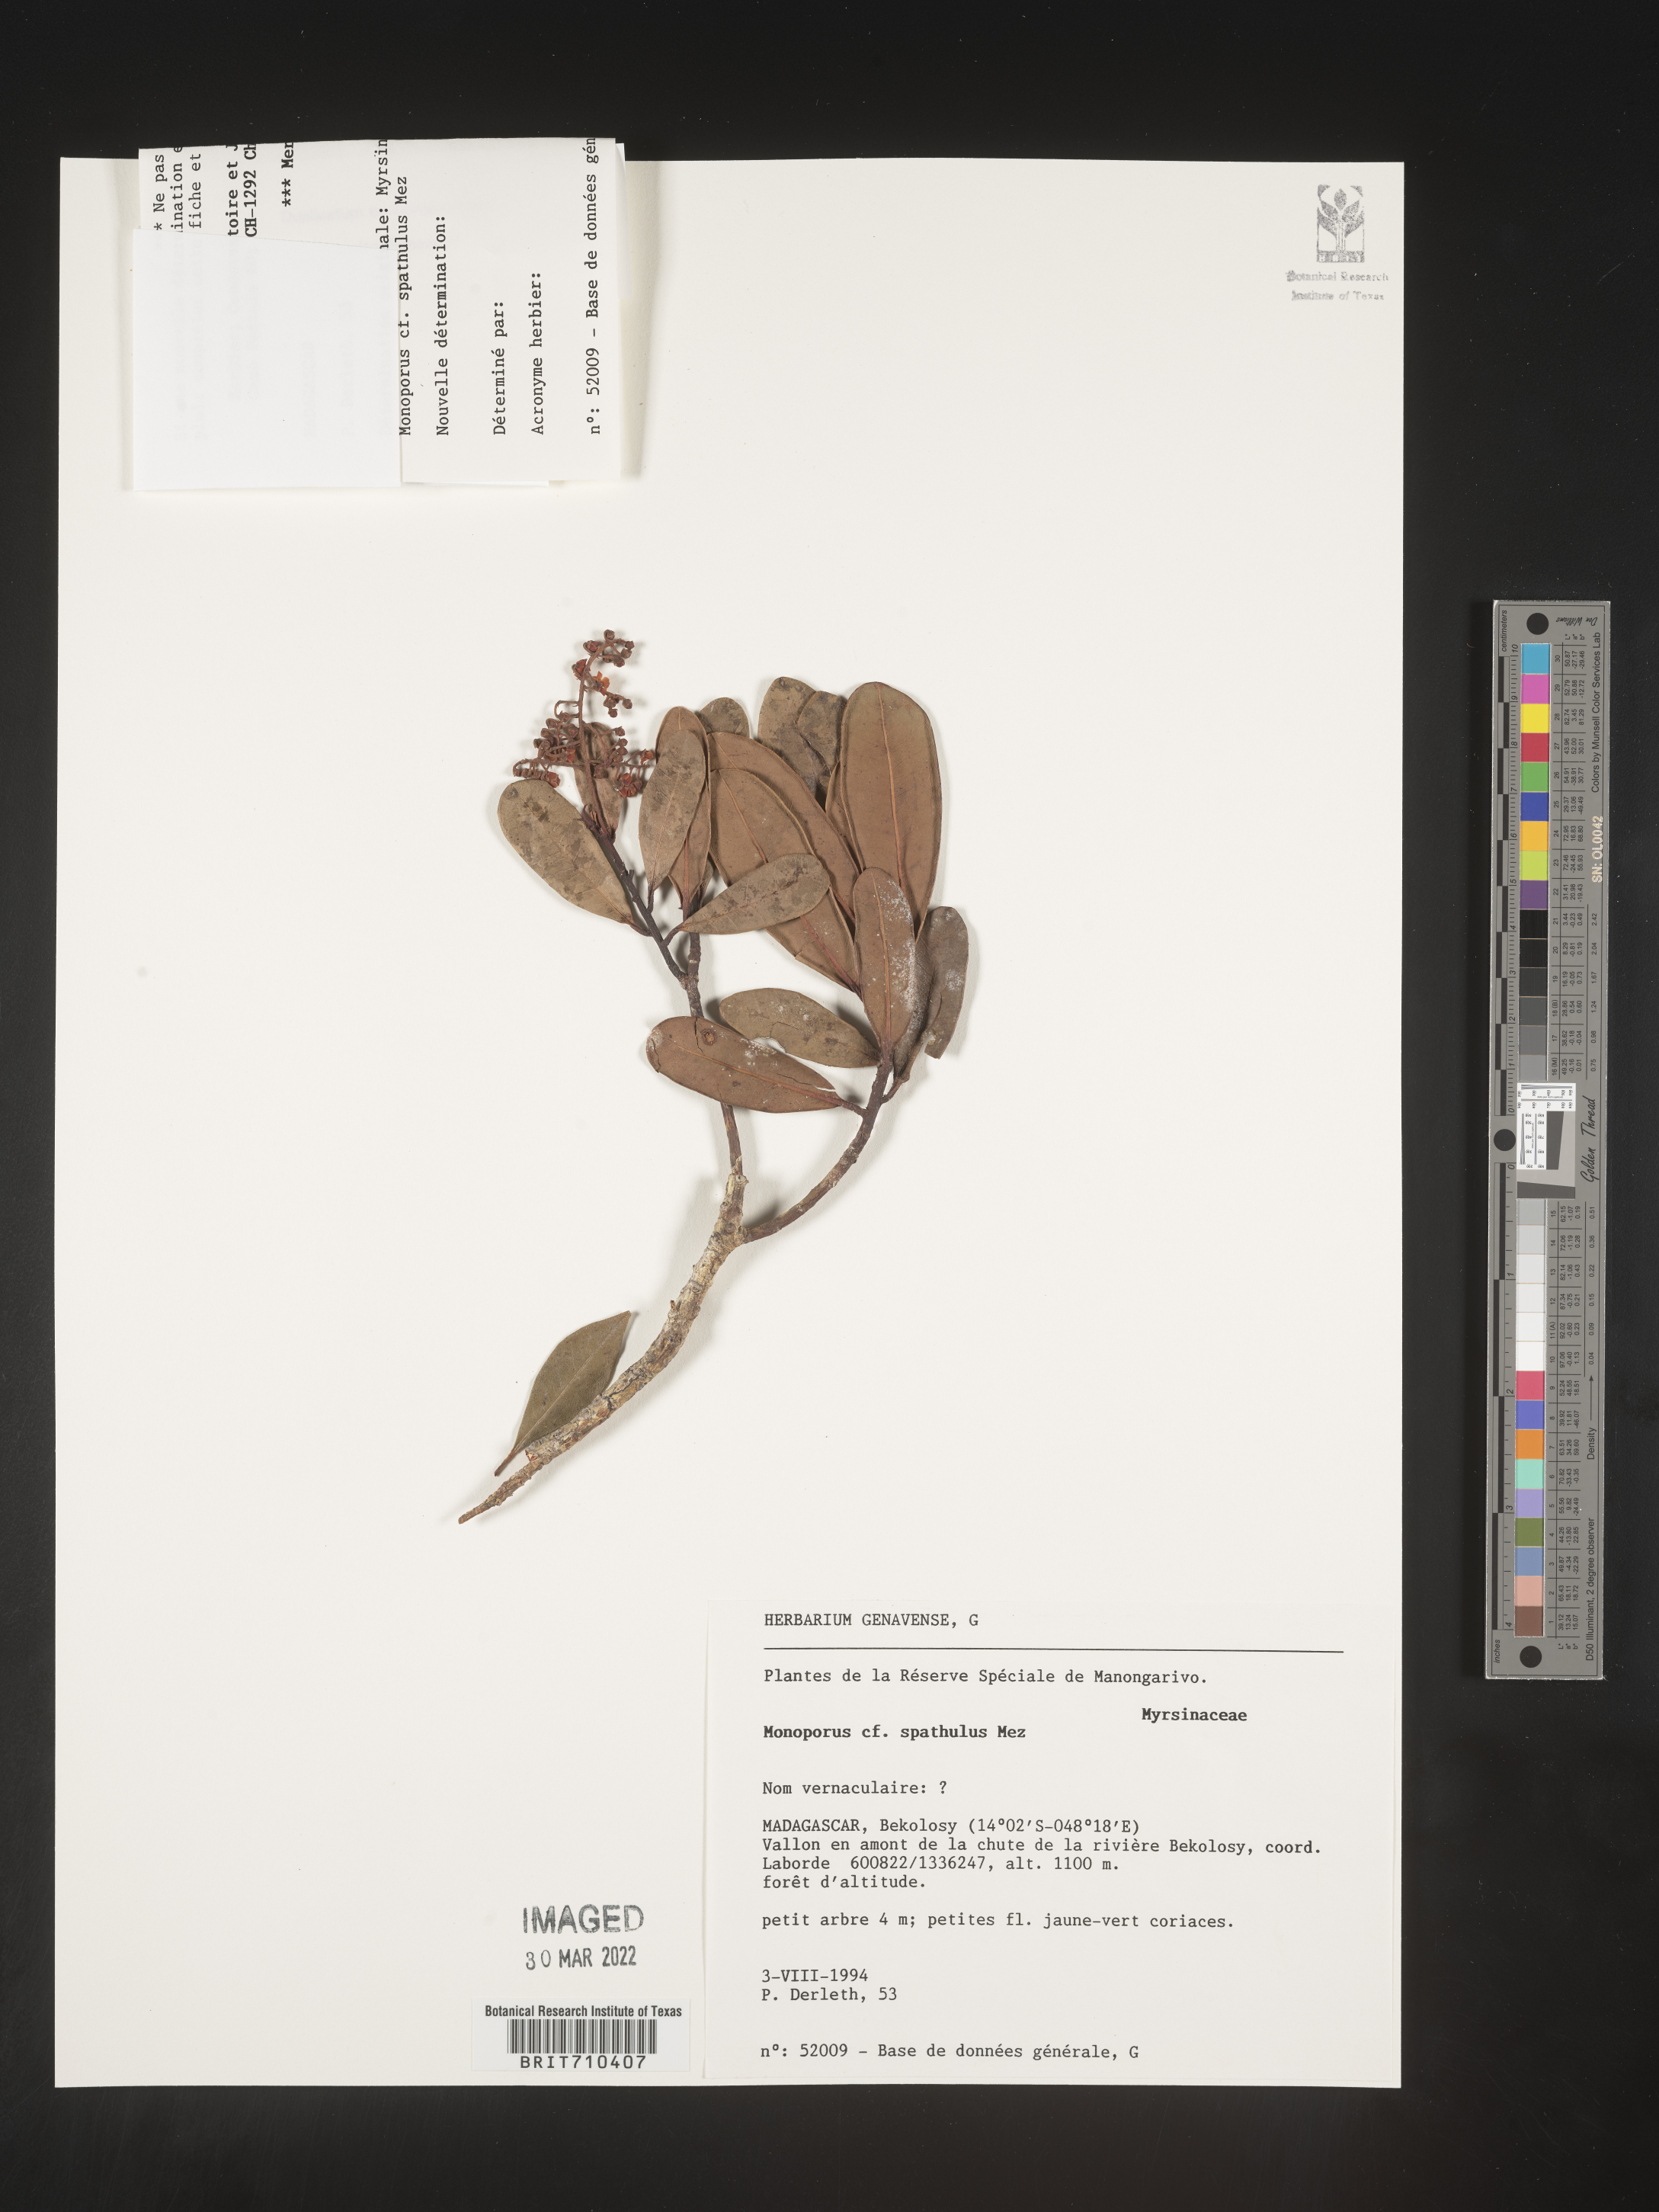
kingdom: Plantae
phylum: Tracheophyta
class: Magnoliopsida
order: Ericales
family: Primulaceae
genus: Monoporus
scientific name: Monoporus
